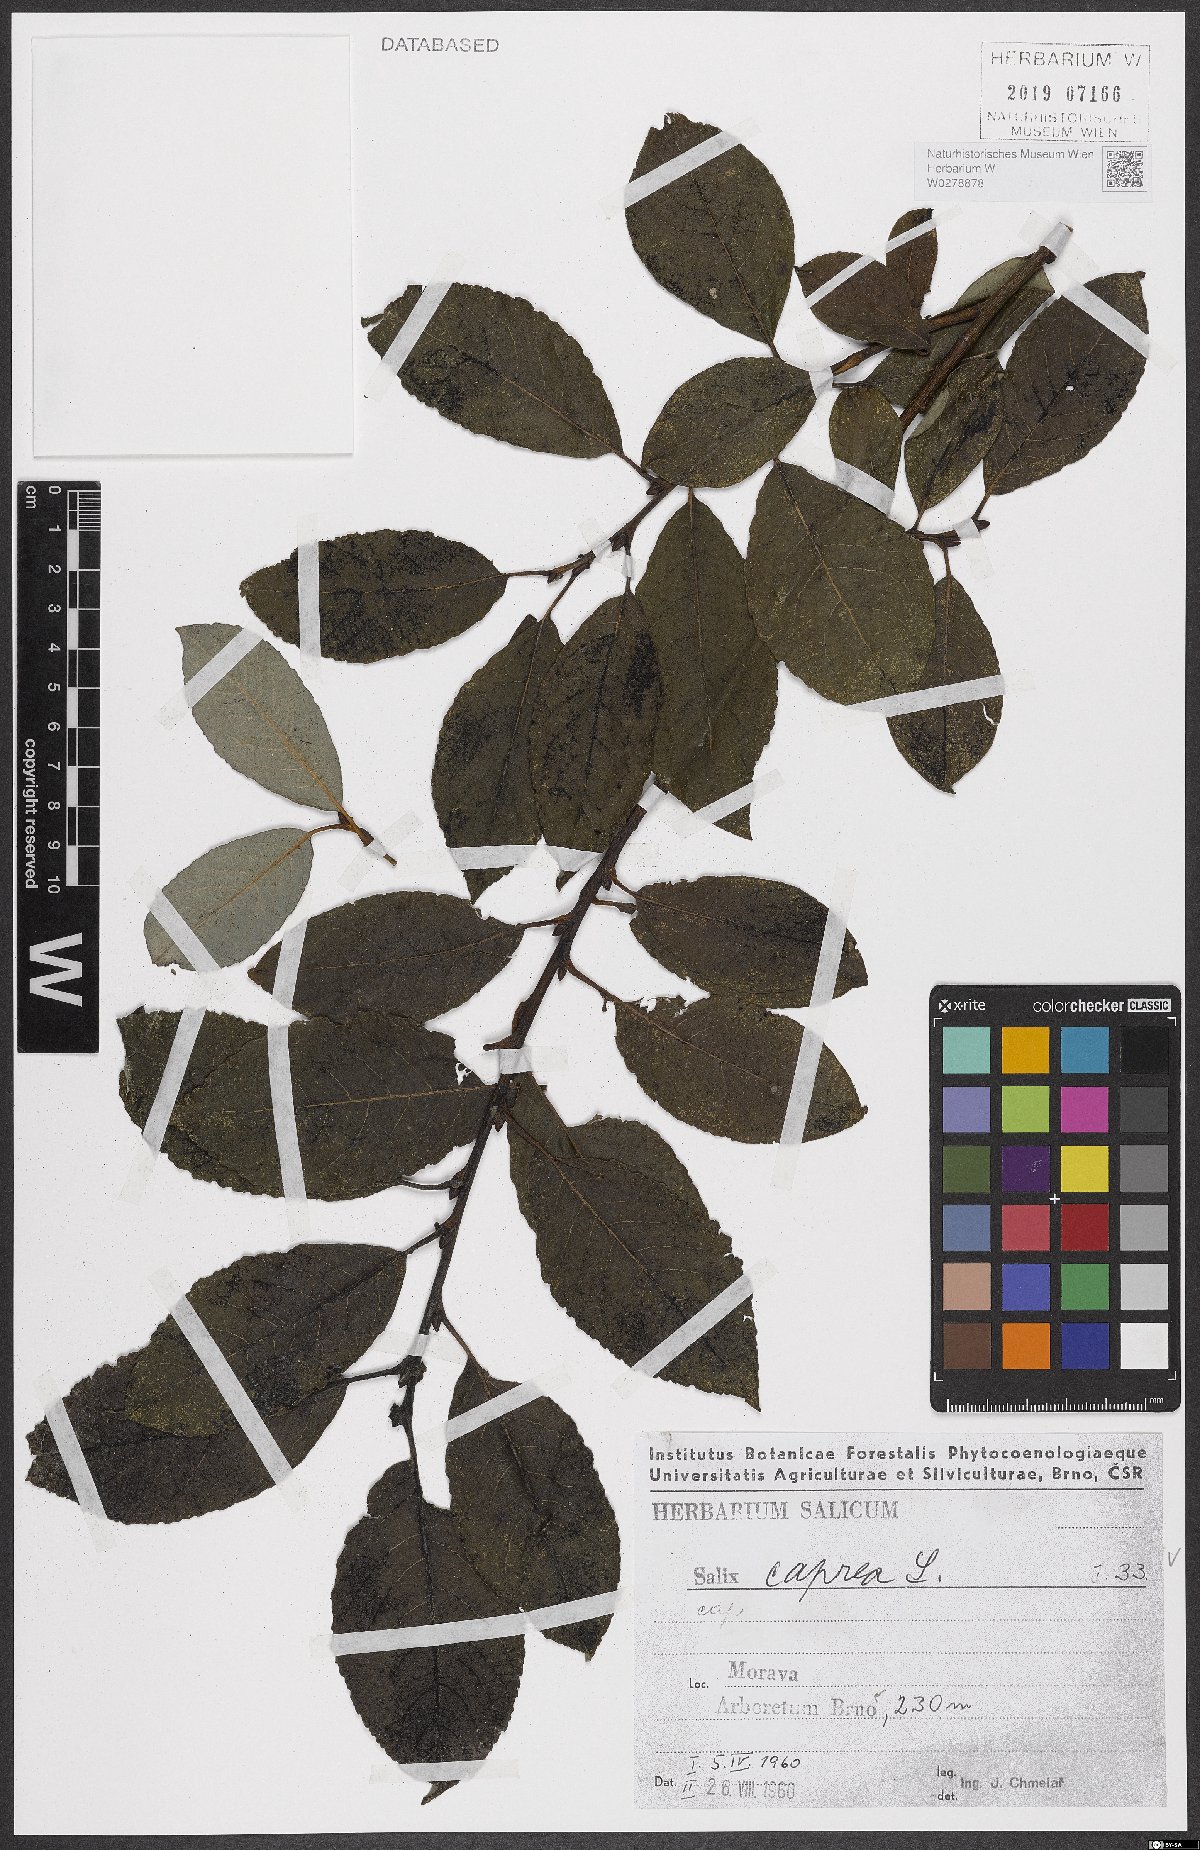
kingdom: Plantae
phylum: Tracheophyta
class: Magnoliopsida
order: Malpighiales
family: Salicaceae
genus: Salix
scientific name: Salix caprea
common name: Goat willow
